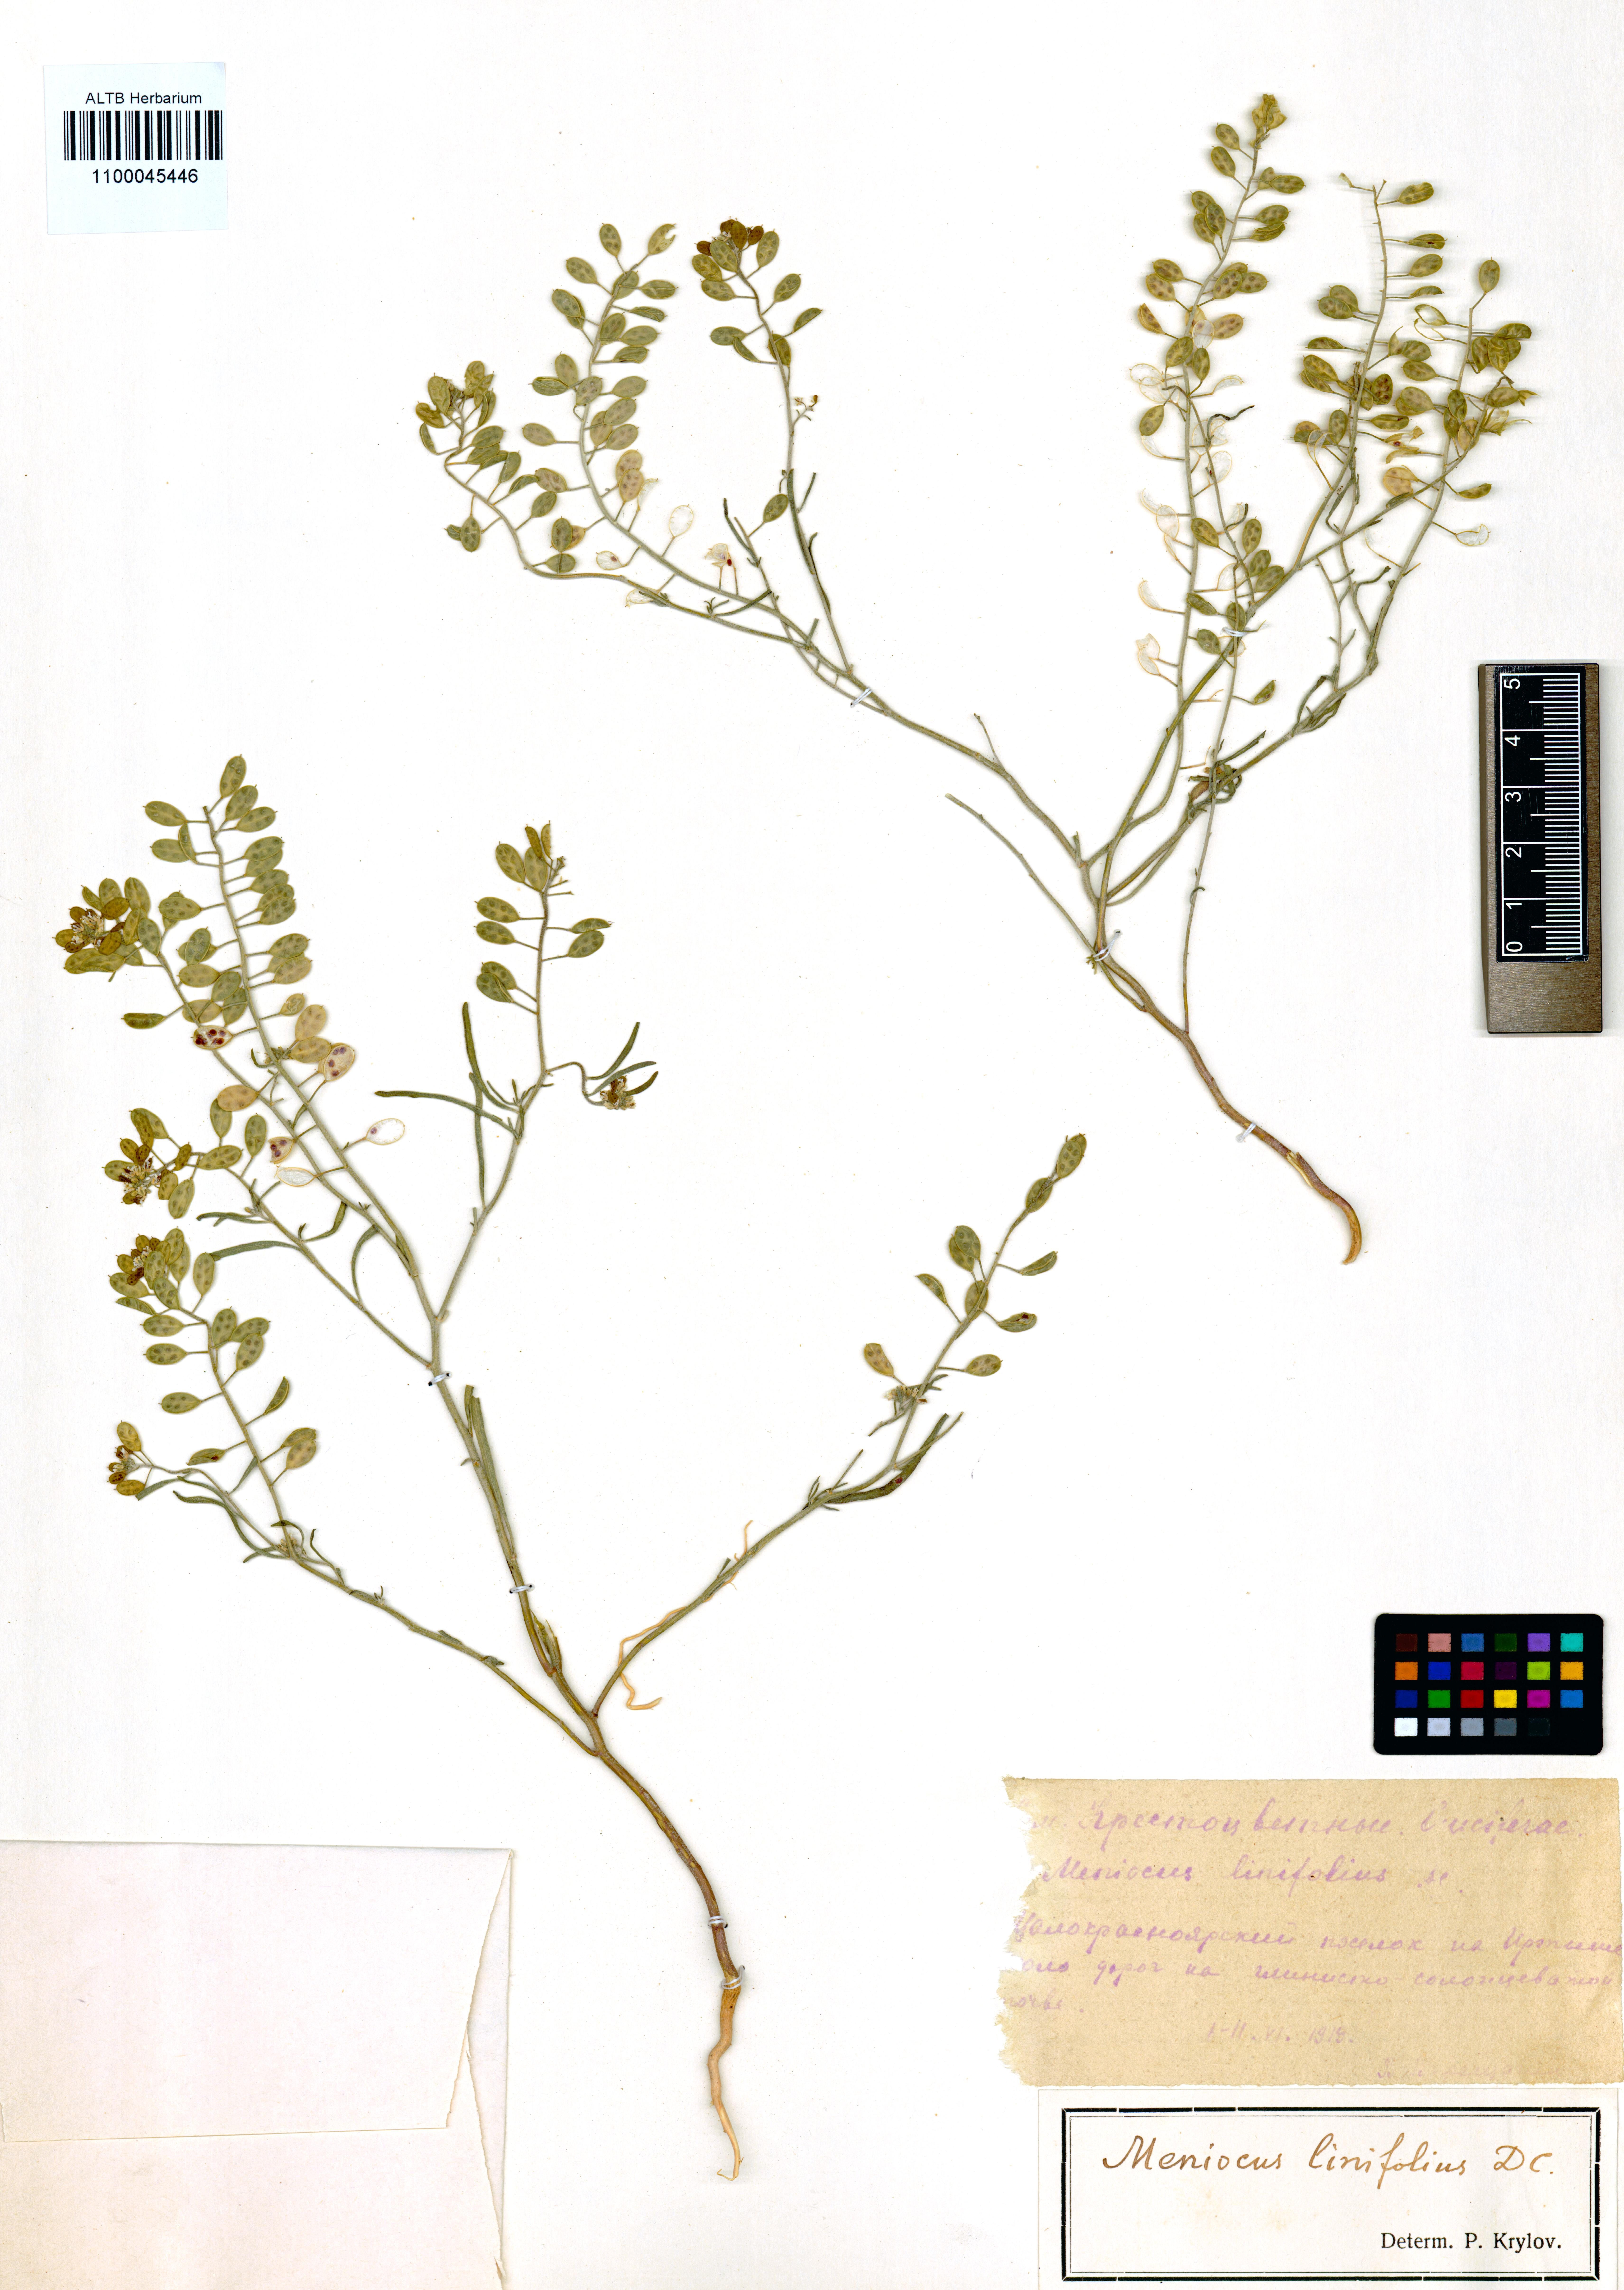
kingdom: Plantae
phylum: Tracheophyta
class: Magnoliopsida
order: Brassicales
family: Brassicaceae
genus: Meniocus
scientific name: Meniocus linifolius
